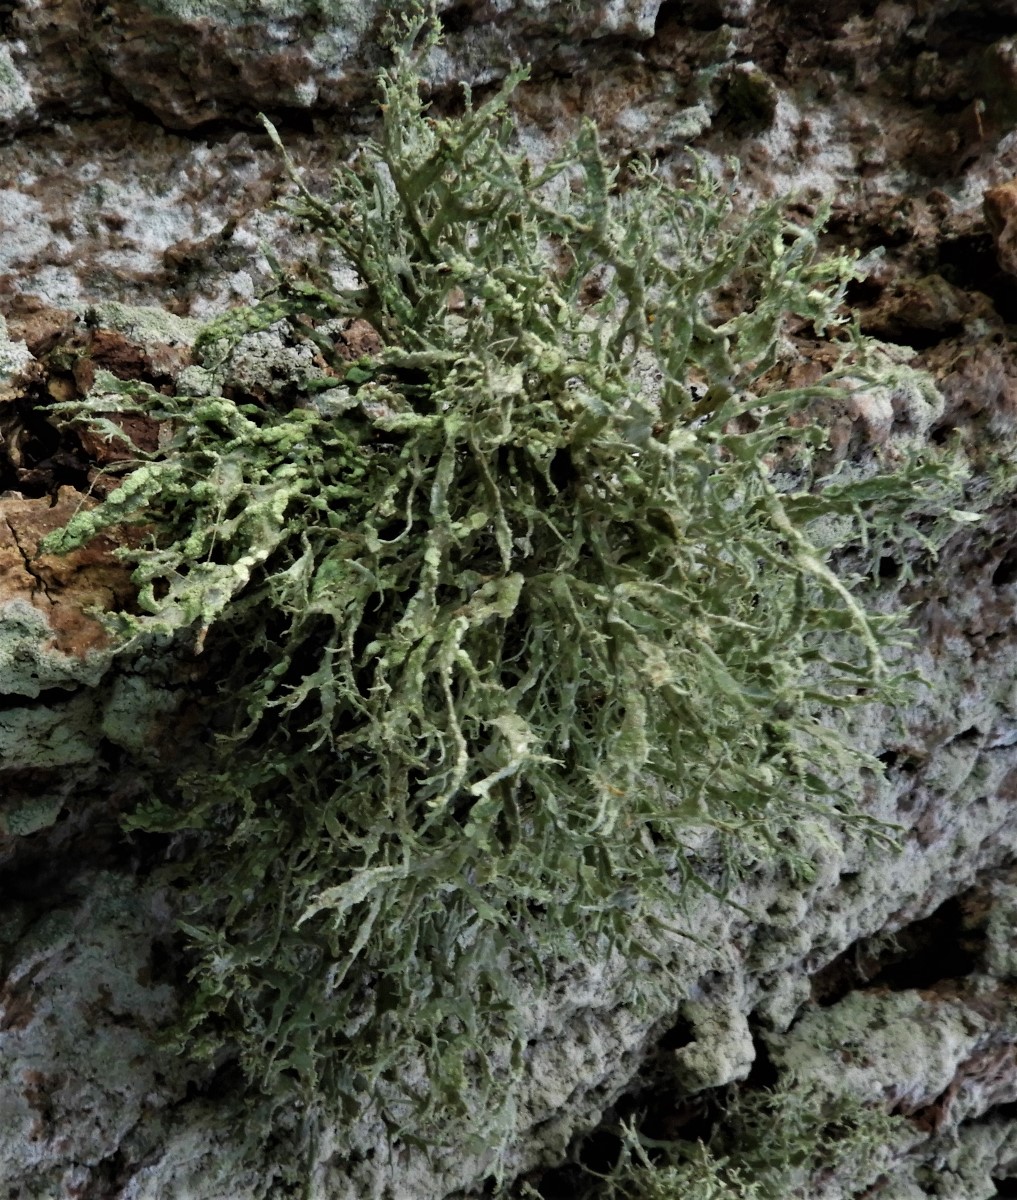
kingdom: Fungi
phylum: Ascomycota
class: Lecanoromycetes
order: Lecanorales
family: Ramalinaceae
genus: Ramalina
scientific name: Ramalina farinacea
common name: melet grenlav
